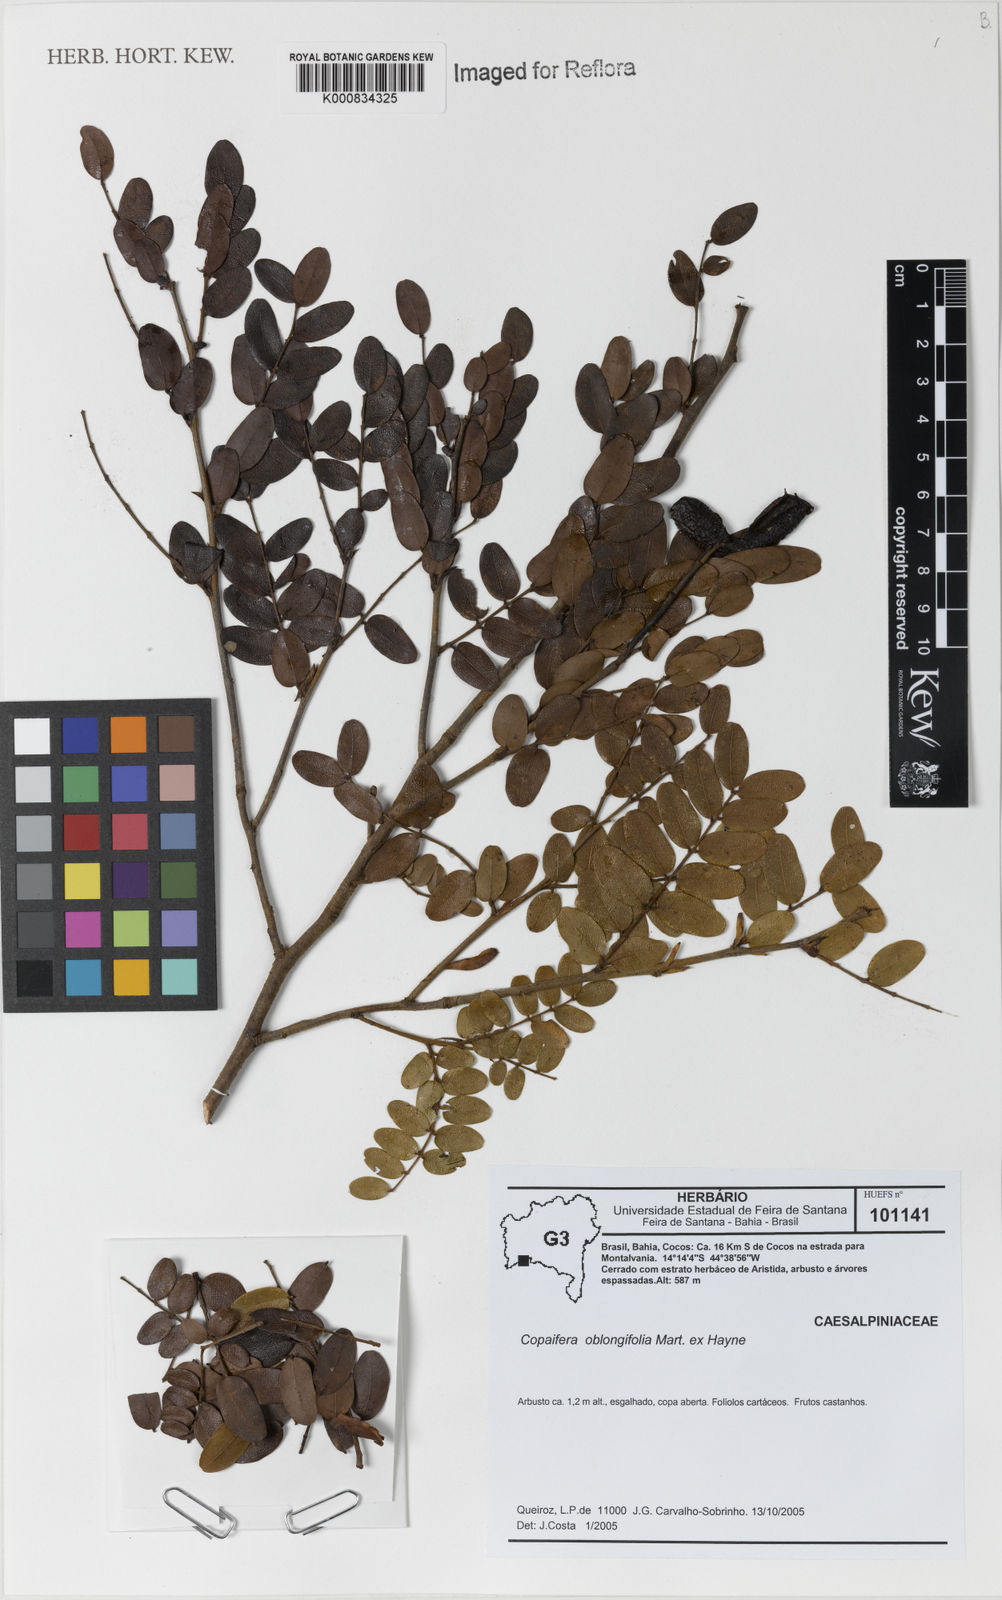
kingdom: Plantae
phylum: Tracheophyta
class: Magnoliopsida
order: Fabales
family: Fabaceae
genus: Copaifera
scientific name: Copaifera
